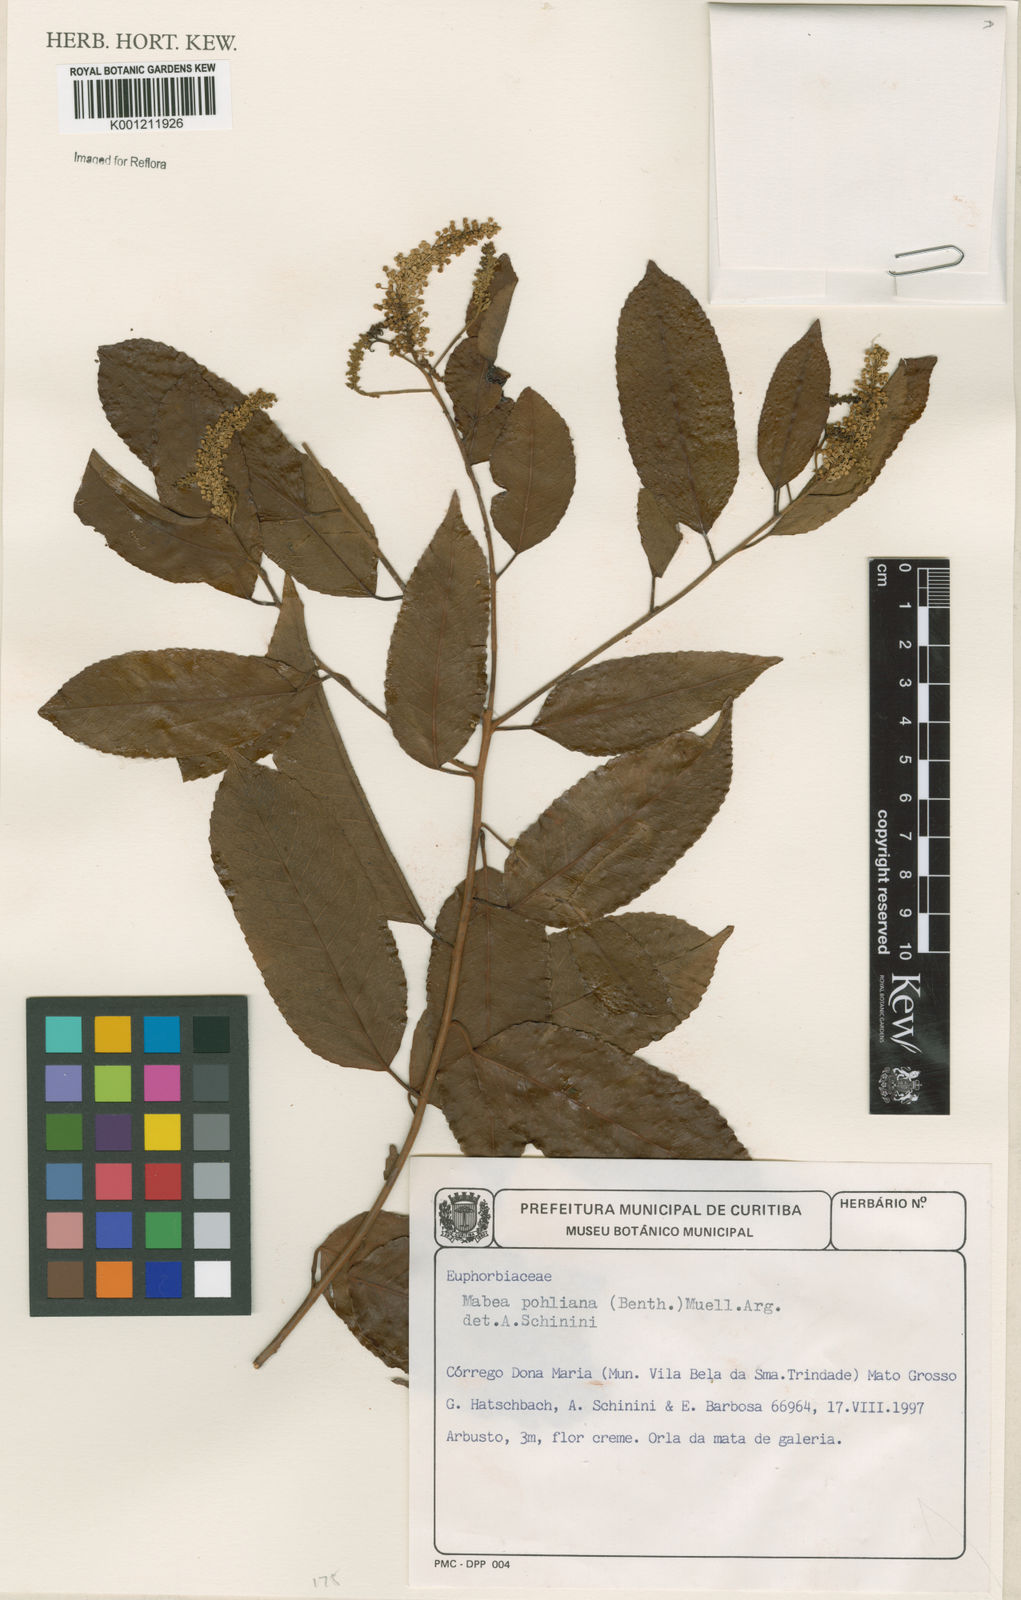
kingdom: Plantae
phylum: Tracheophyta
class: Magnoliopsida
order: Malpighiales
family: Euphorbiaceae
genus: Mabea
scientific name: Mabea
